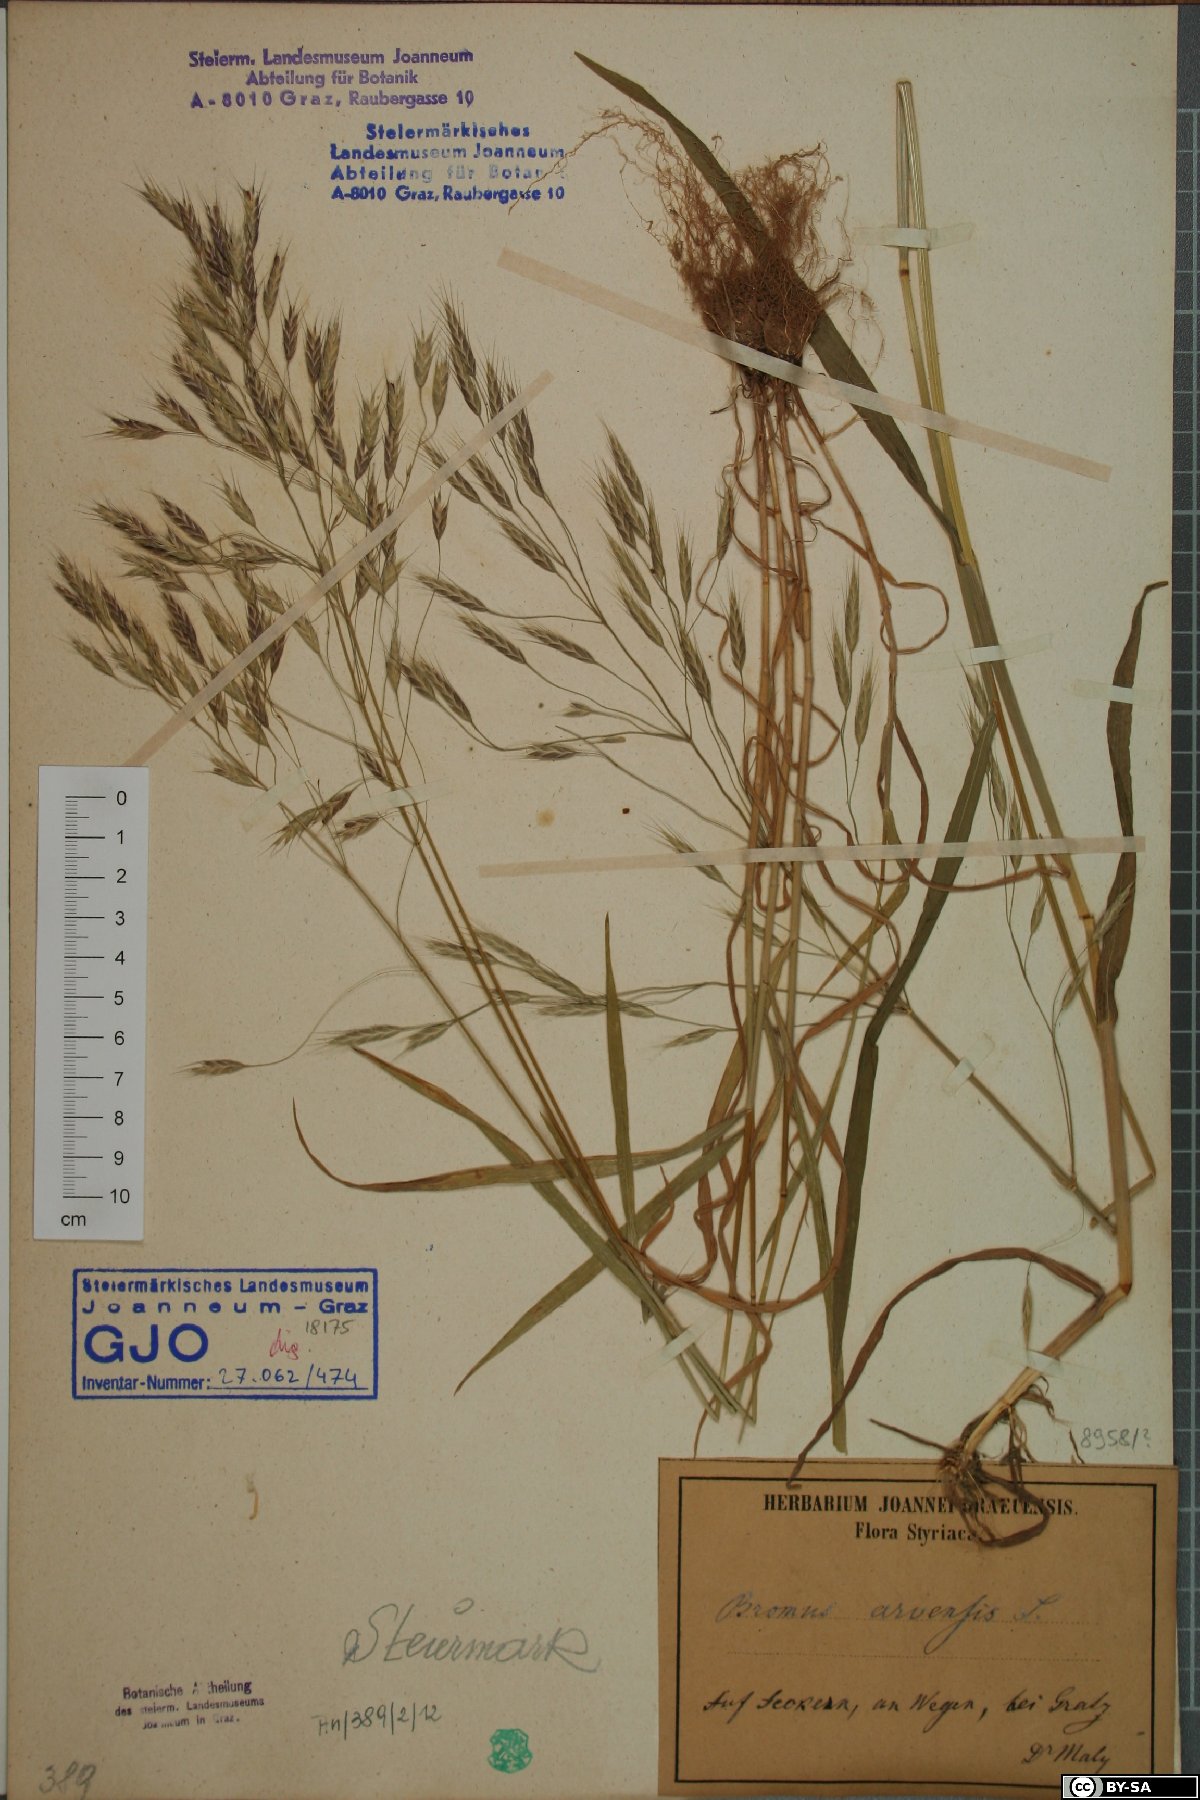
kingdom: Plantae
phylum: Tracheophyta
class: Liliopsida
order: Poales
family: Poaceae
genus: Bromus
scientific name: Bromus arvensis
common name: Field brome
